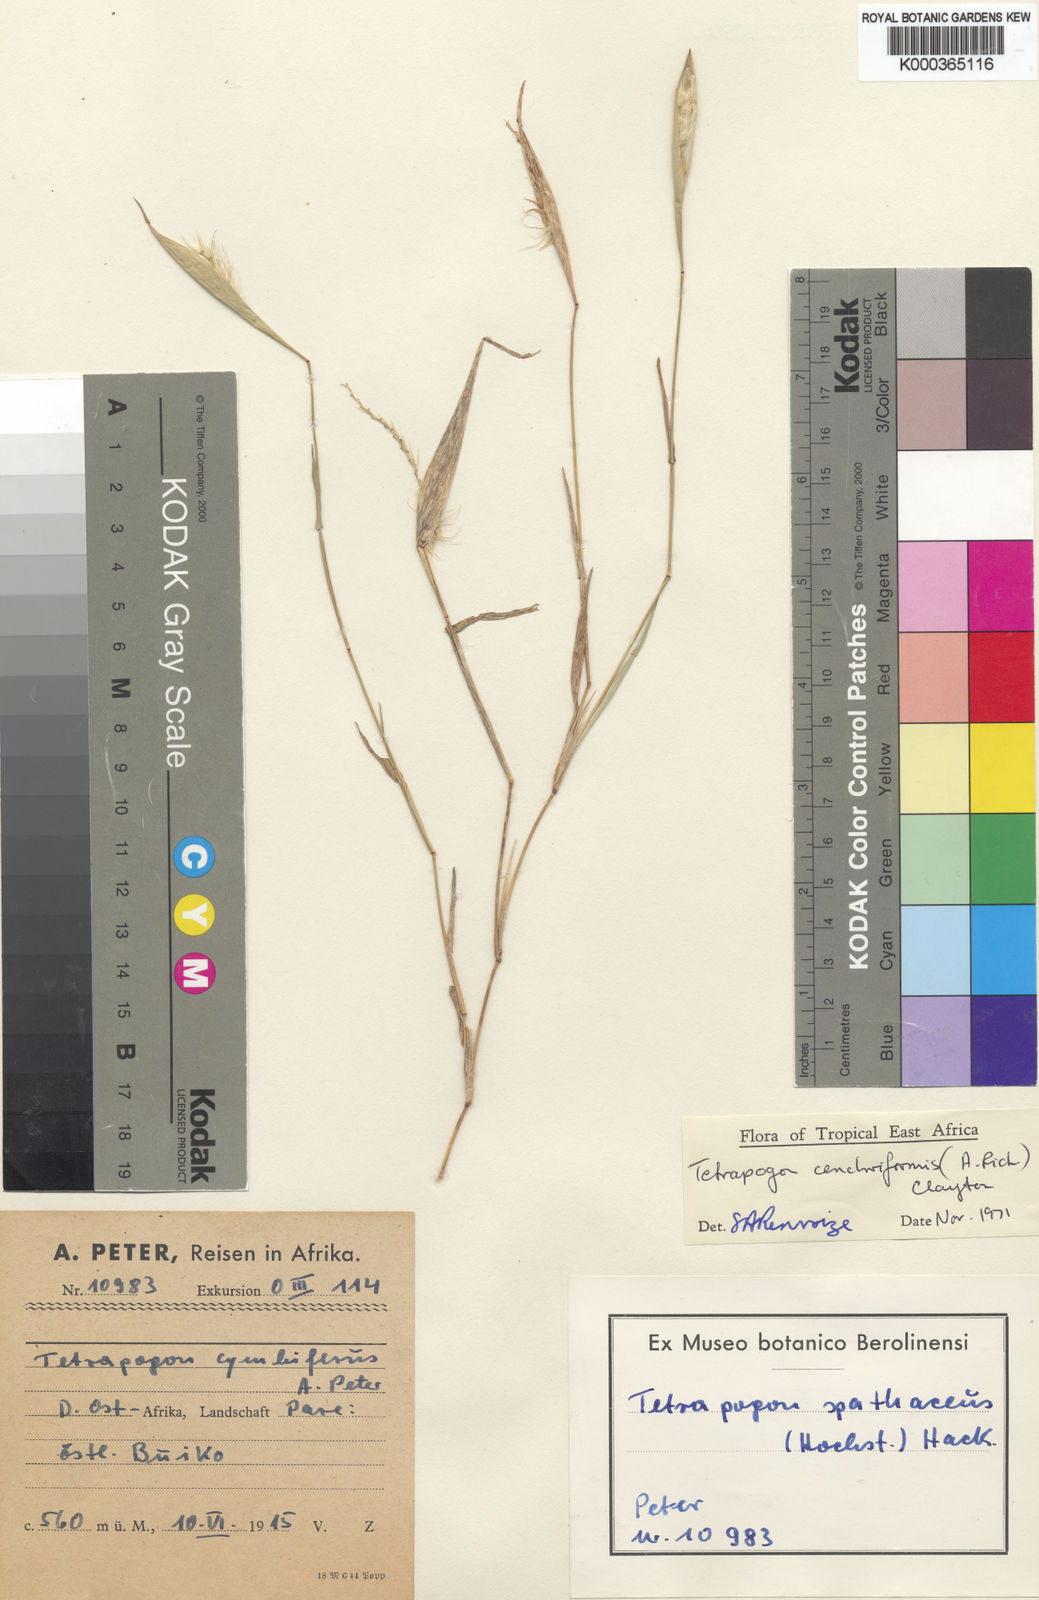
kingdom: Plantae
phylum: Tracheophyta
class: Liliopsida
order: Poales
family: Poaceae
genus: Tetrapogon
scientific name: Tetrapogon
